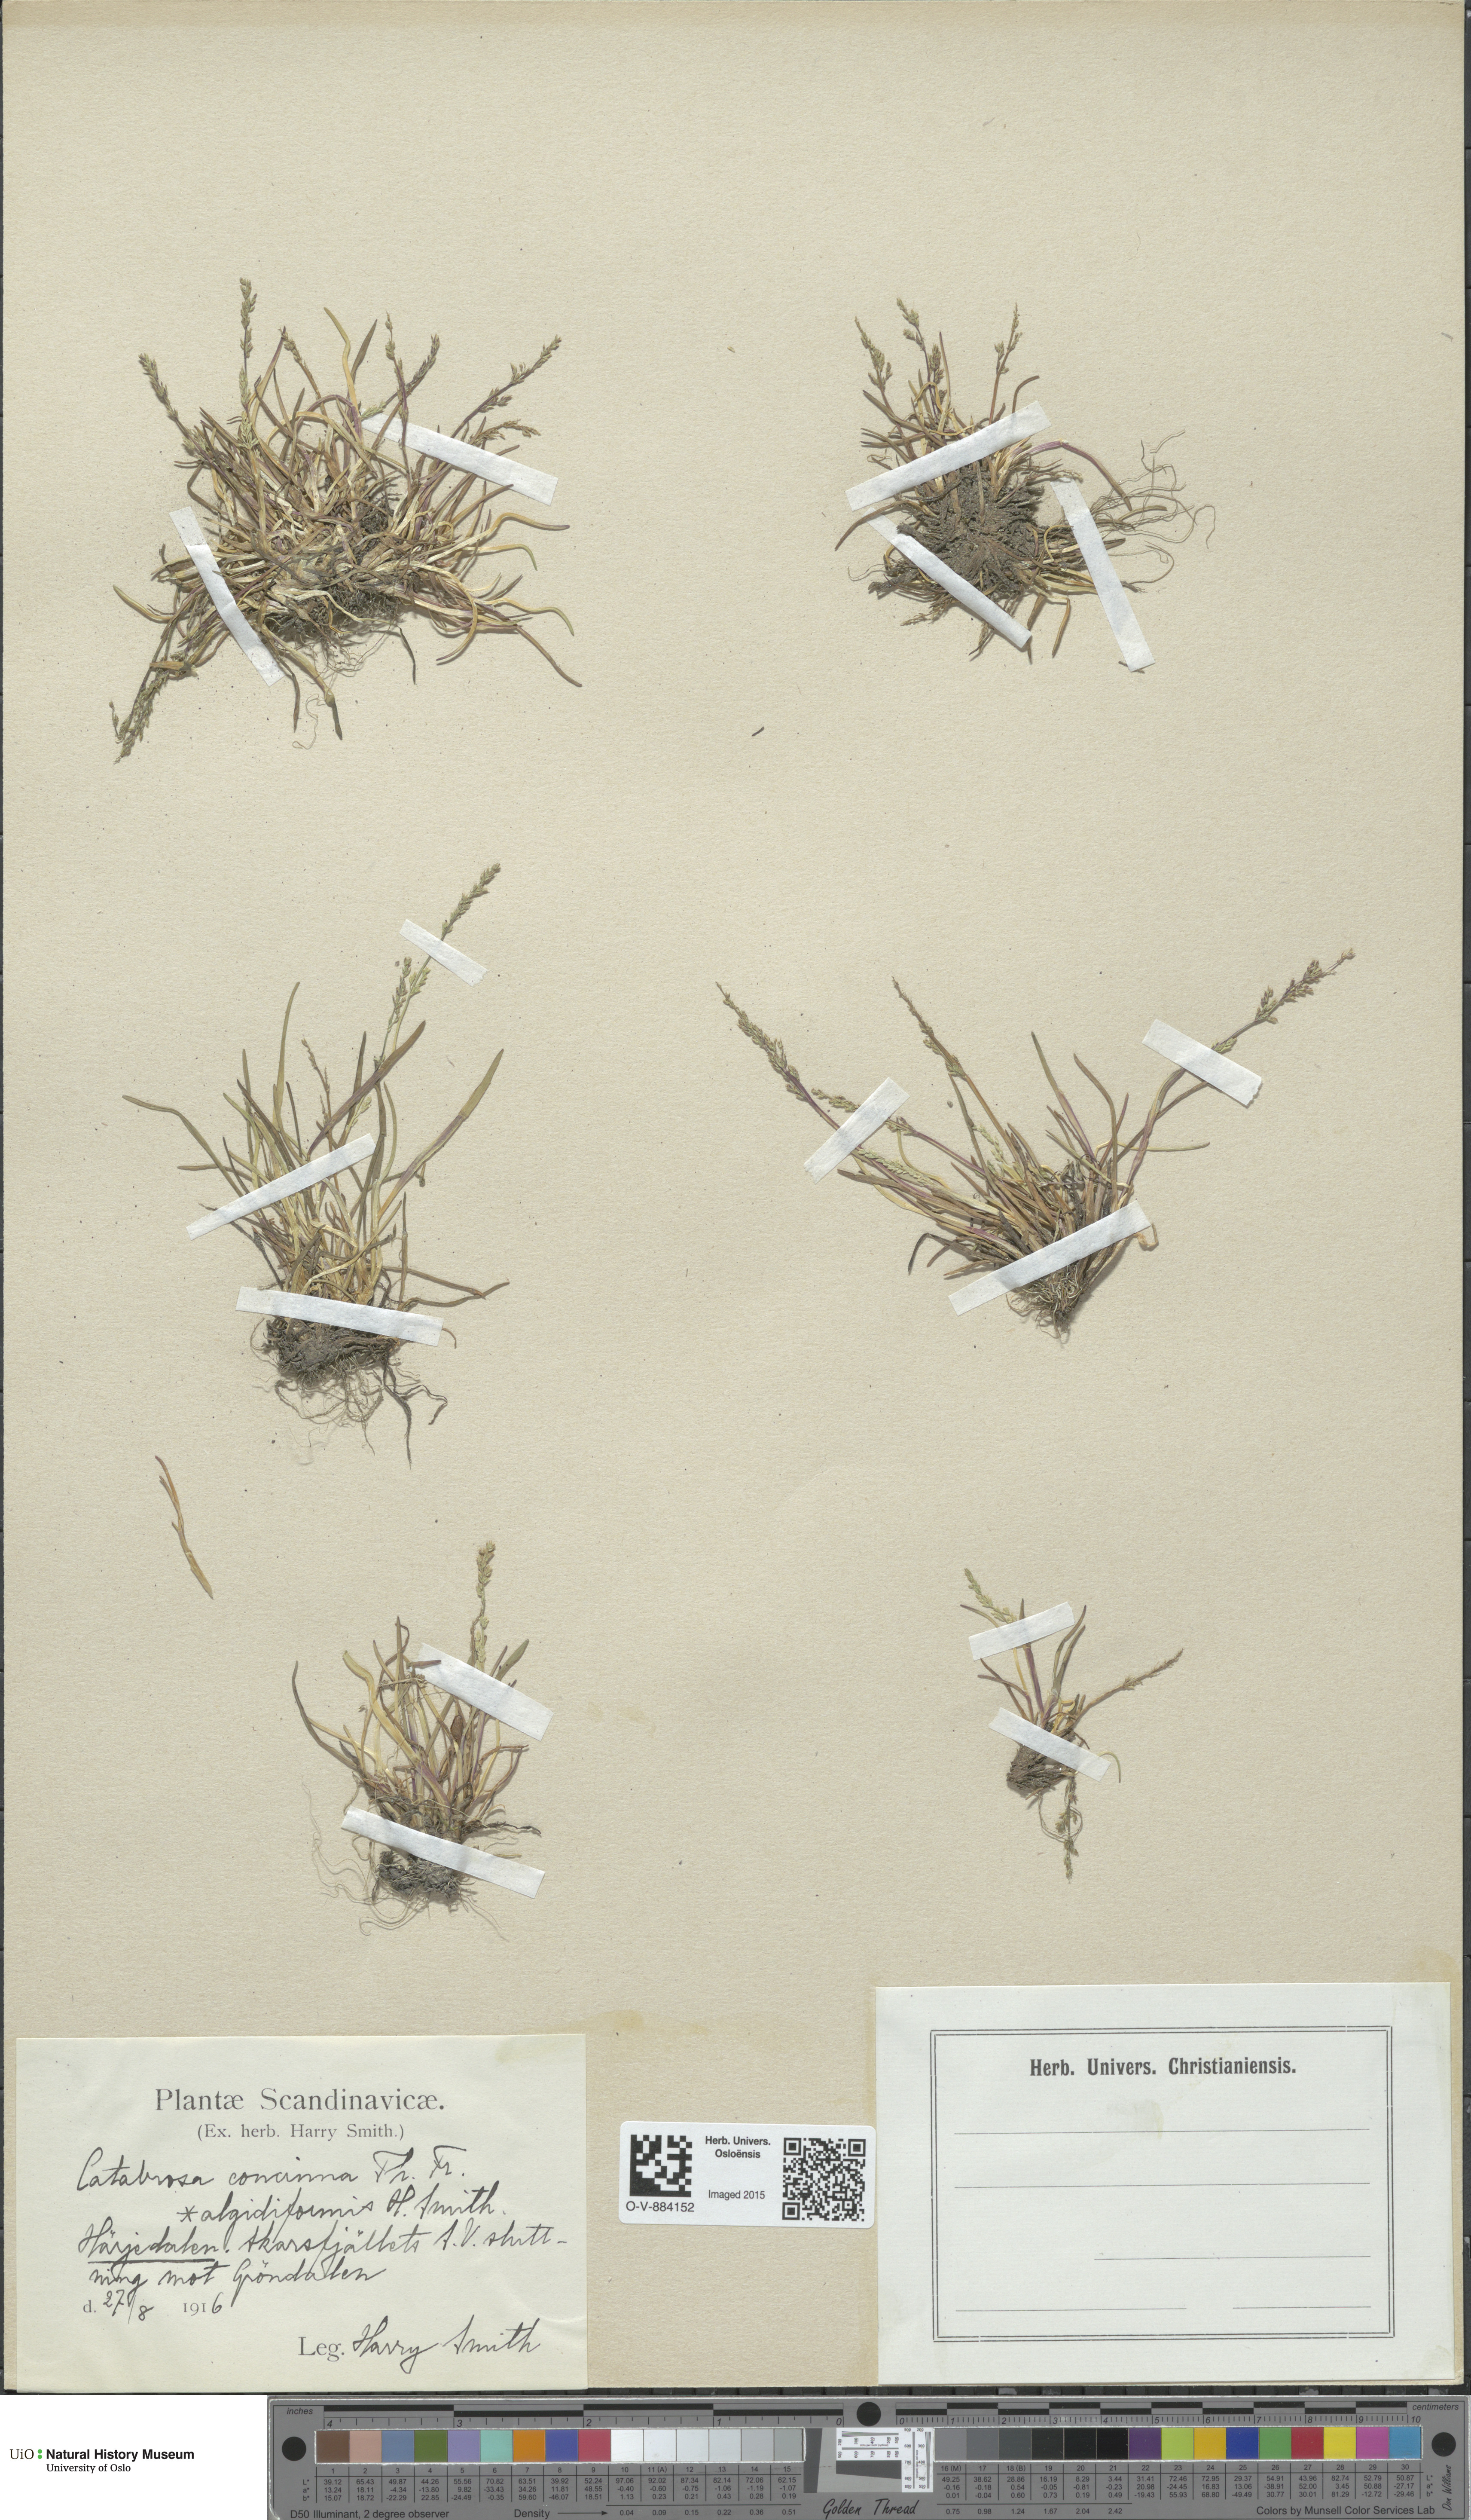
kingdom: Plantae
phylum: Tracheophyta
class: Liliopsida
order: Poales
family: Poaceae
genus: Phippsia
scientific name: Phippsia concinna
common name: Snowgrass
